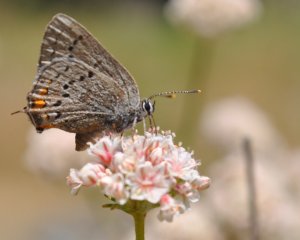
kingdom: Animalia
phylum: Arthropoda
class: Insecta
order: Lepidoptera
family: Lycaenidae
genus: Strymon
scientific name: Strymon acadica
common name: California Hairstreak
